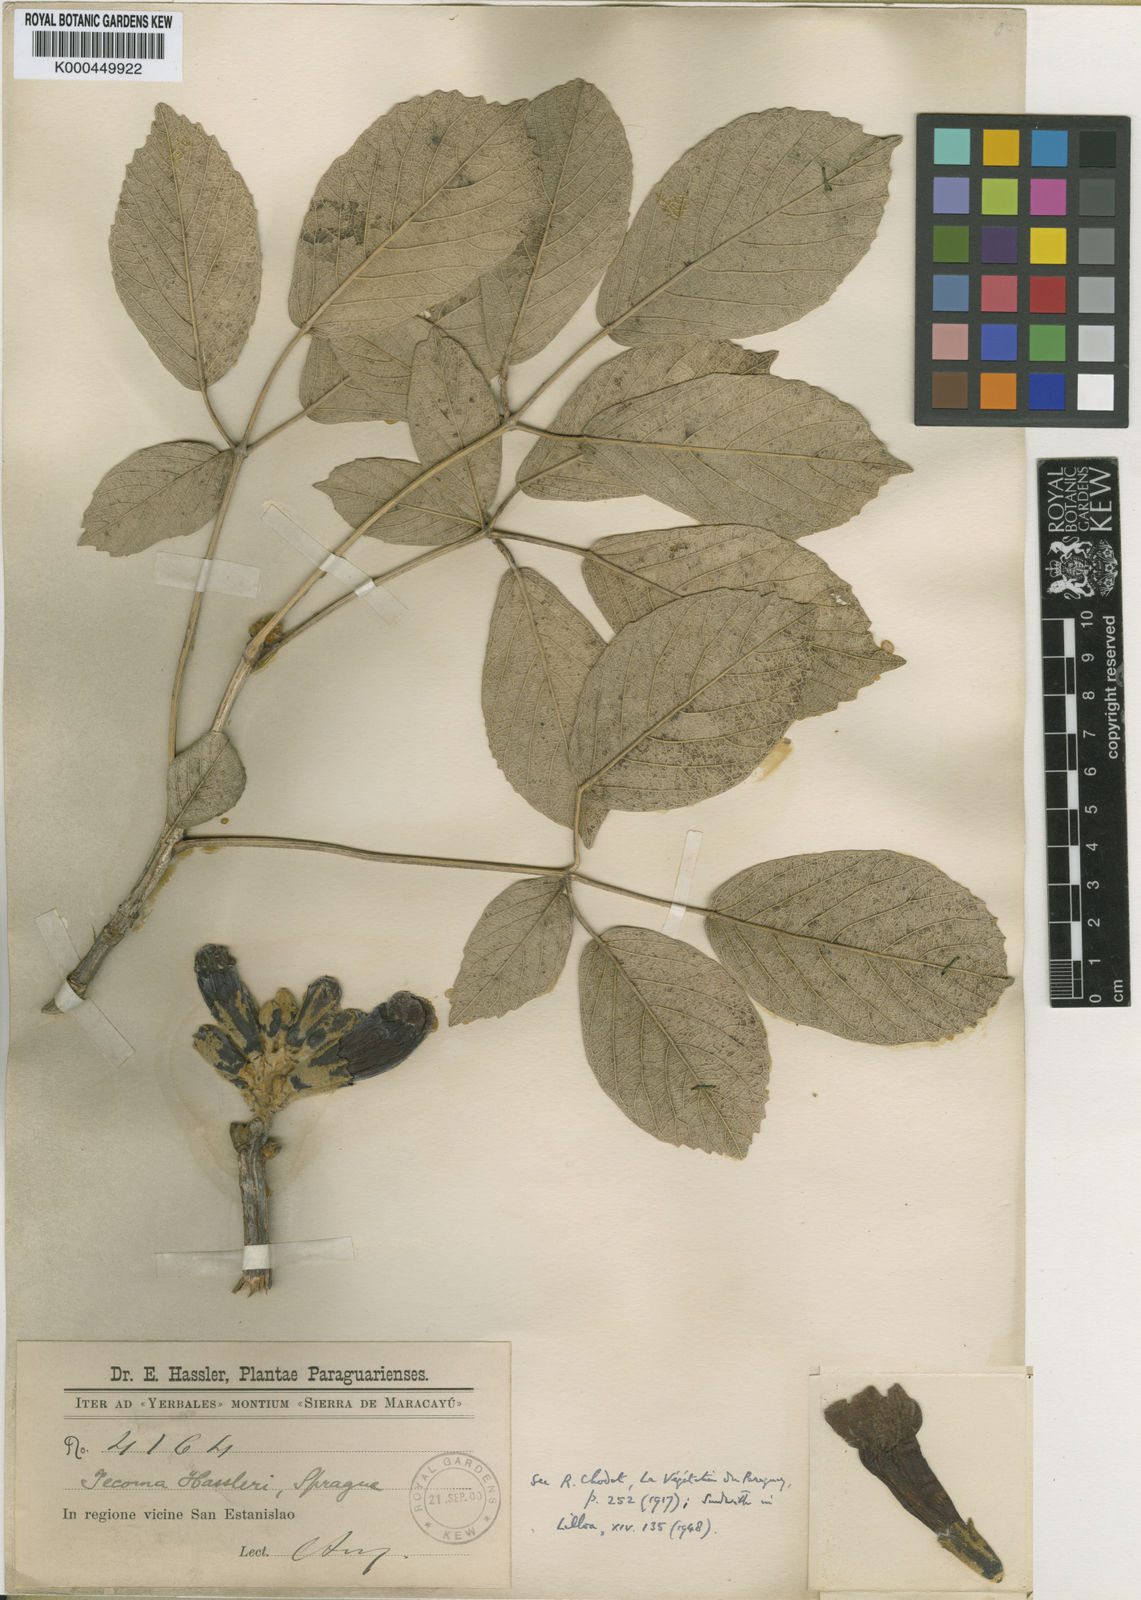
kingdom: Plantae
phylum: Tracheophyta
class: Magnoliopsida
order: Lamiales
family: Bignoniaceae
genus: Handroanthus
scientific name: Handroanthus ochraceus
